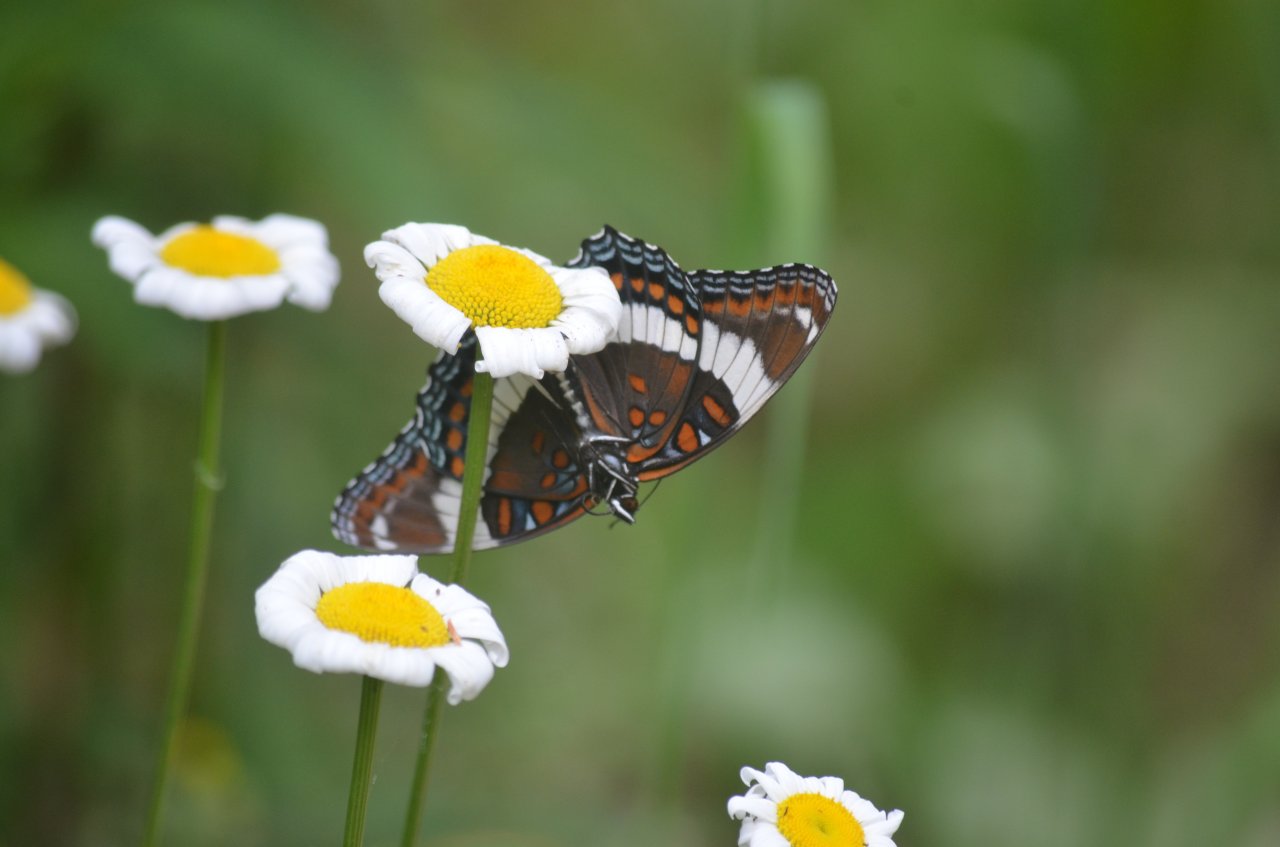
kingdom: Animalia
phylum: Arthropoda
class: Insecta
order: Lepidoptera
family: Nymphalidae
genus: Limenitis
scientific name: Limenitis arthemis
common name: Red-spotted Admiral
